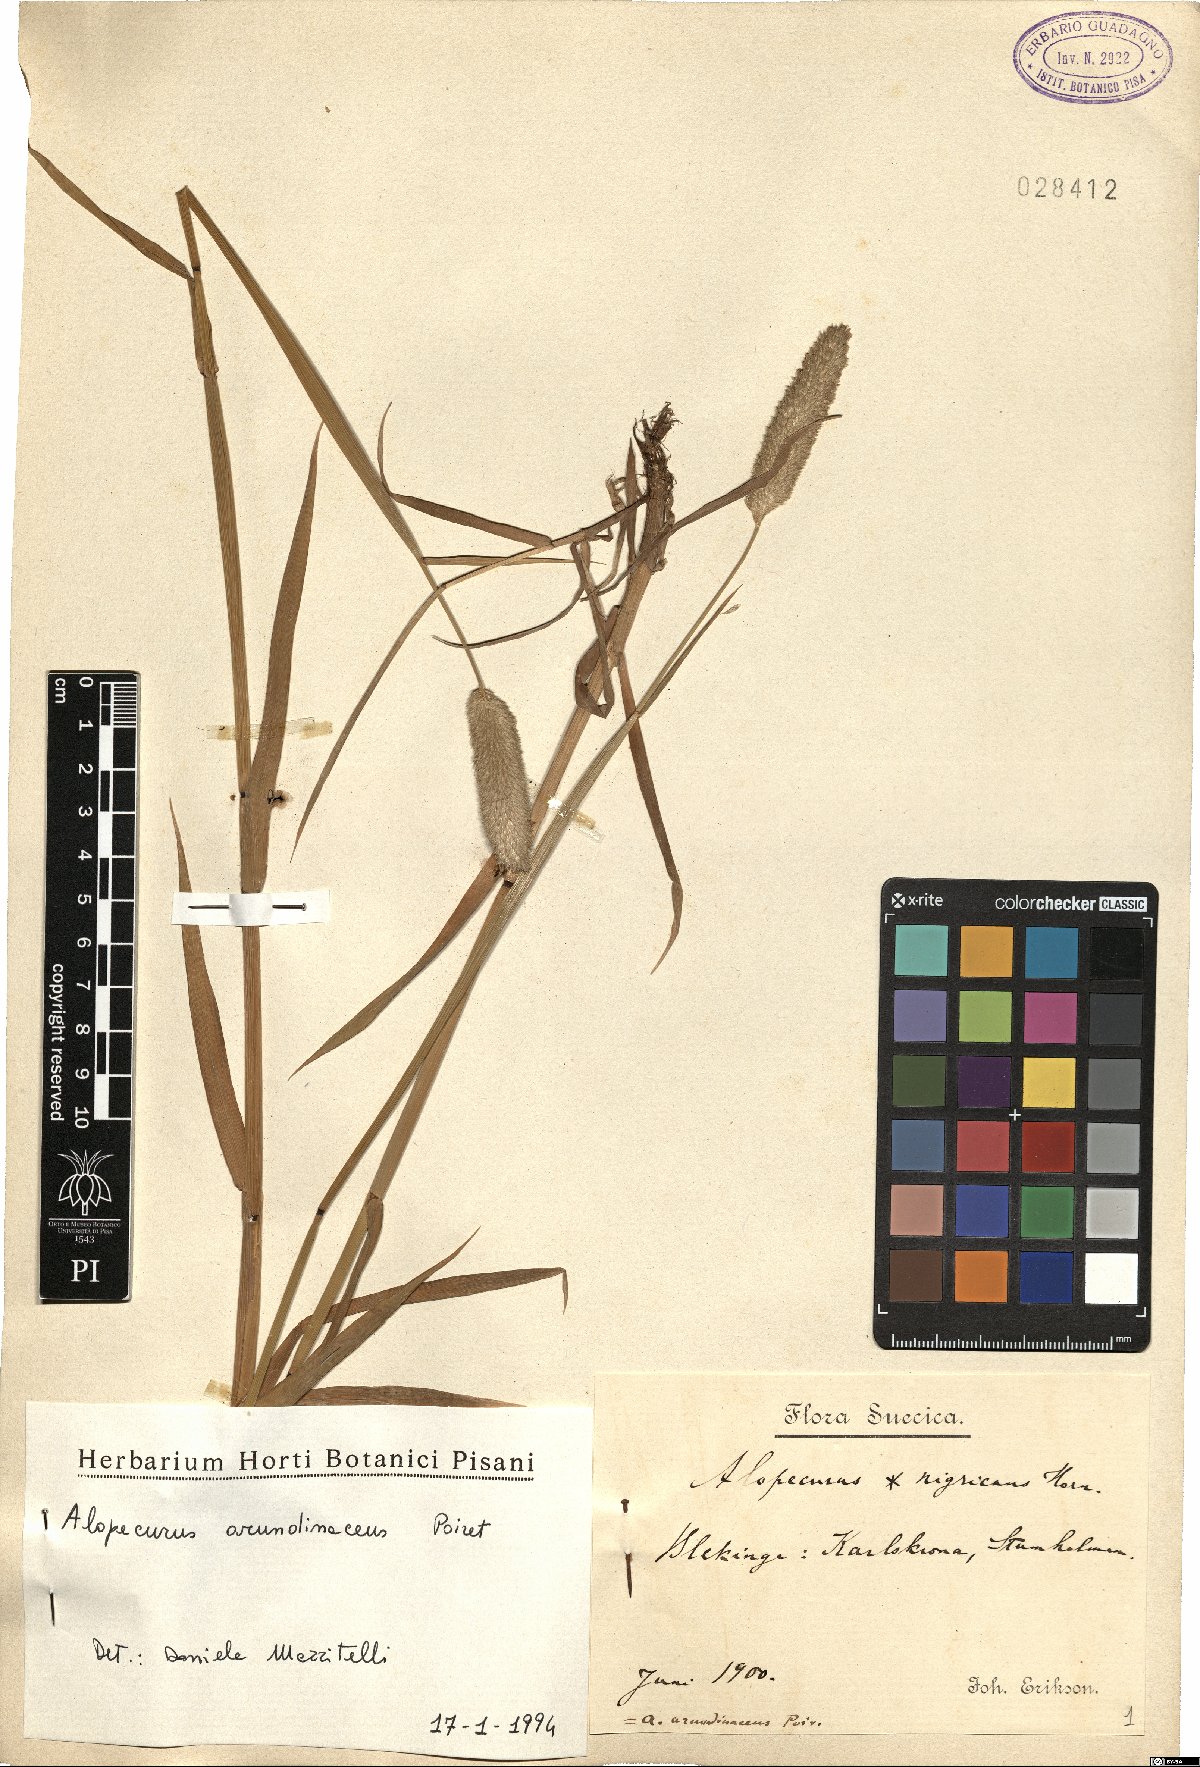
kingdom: Plantae
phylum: Tracheophyta
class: Liliopsida
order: Poales
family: Poaceae
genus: Alopecurus
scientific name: Alopecurus arundinaceus
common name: Creeping meadow foxtail
